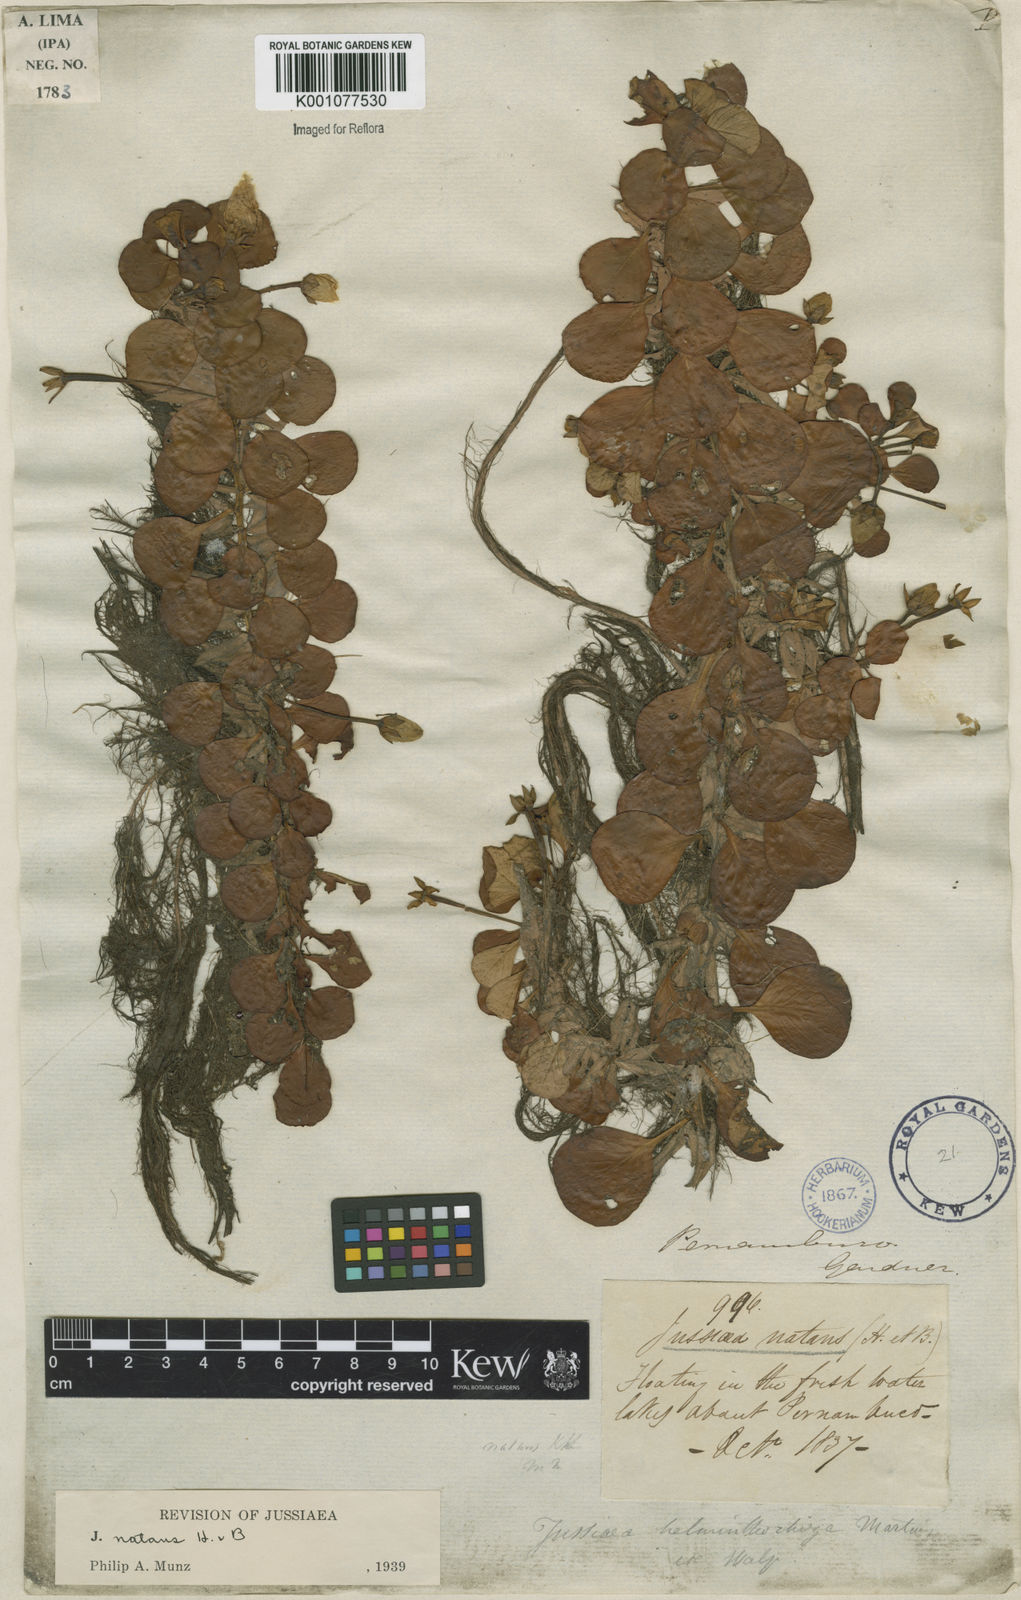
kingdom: Plantae
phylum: Tracheophyta
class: Magnoliopsida
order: Myrtales
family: Onagraceae
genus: Ludwigia
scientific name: Ludwigia helminthorrhiza
